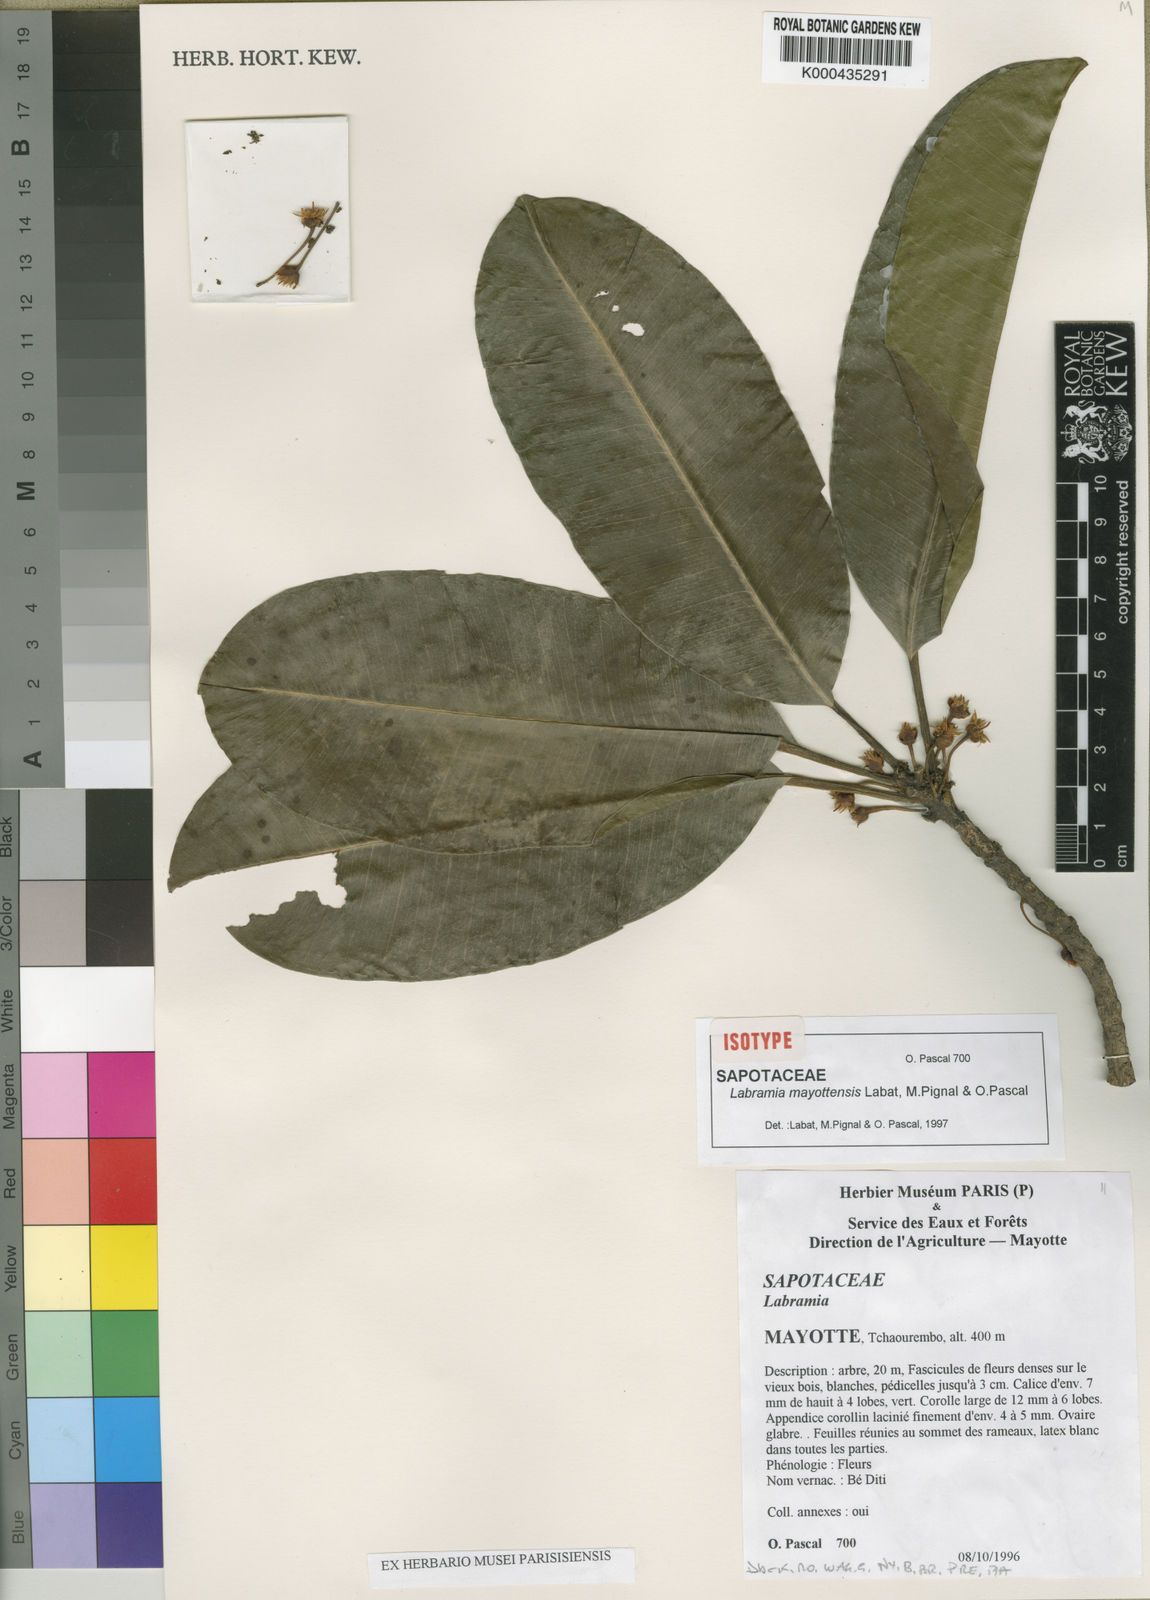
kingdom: Plantae
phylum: Tracheophyta
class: Magnoliopsida
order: Ericales
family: Sapotaceae
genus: Labramia
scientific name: Labramia mayottensis
